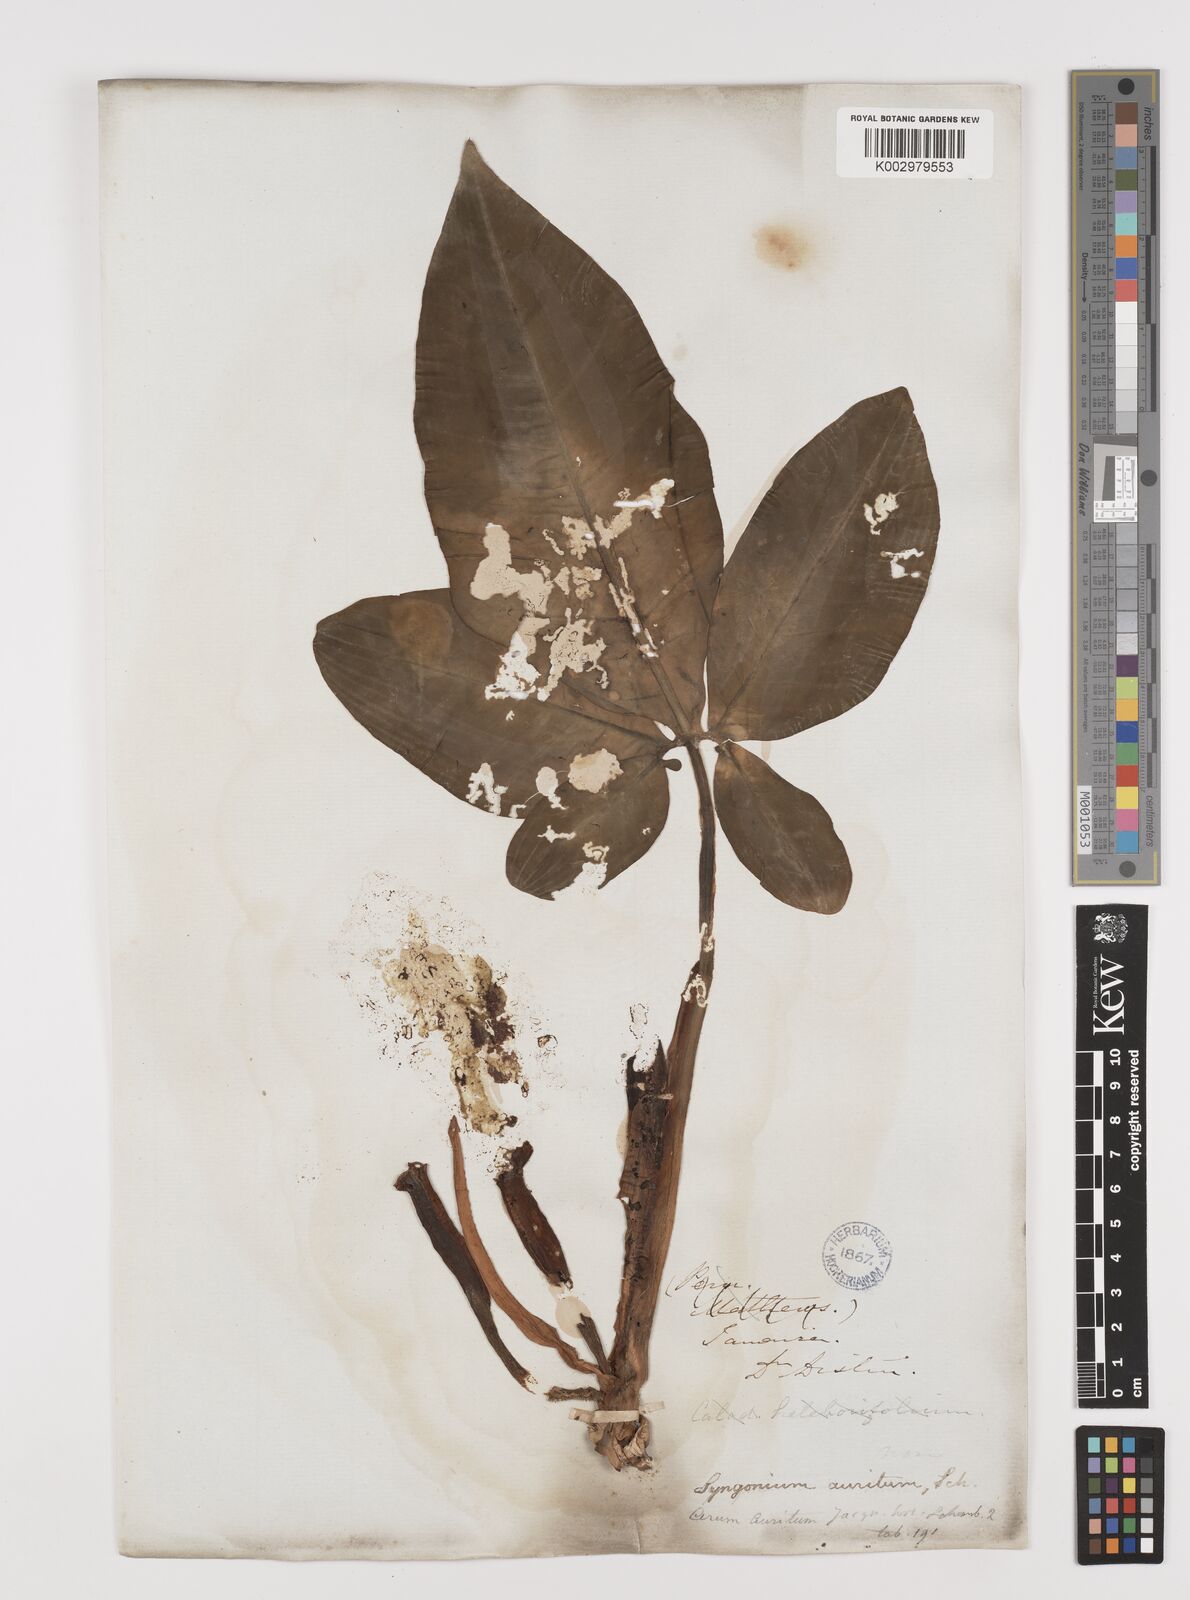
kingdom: Plantae
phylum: Tracheophyta
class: Liliopsida
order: Alismatales
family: Araceae
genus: Syngonium
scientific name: Syngonium auritum
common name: Five-fingers
